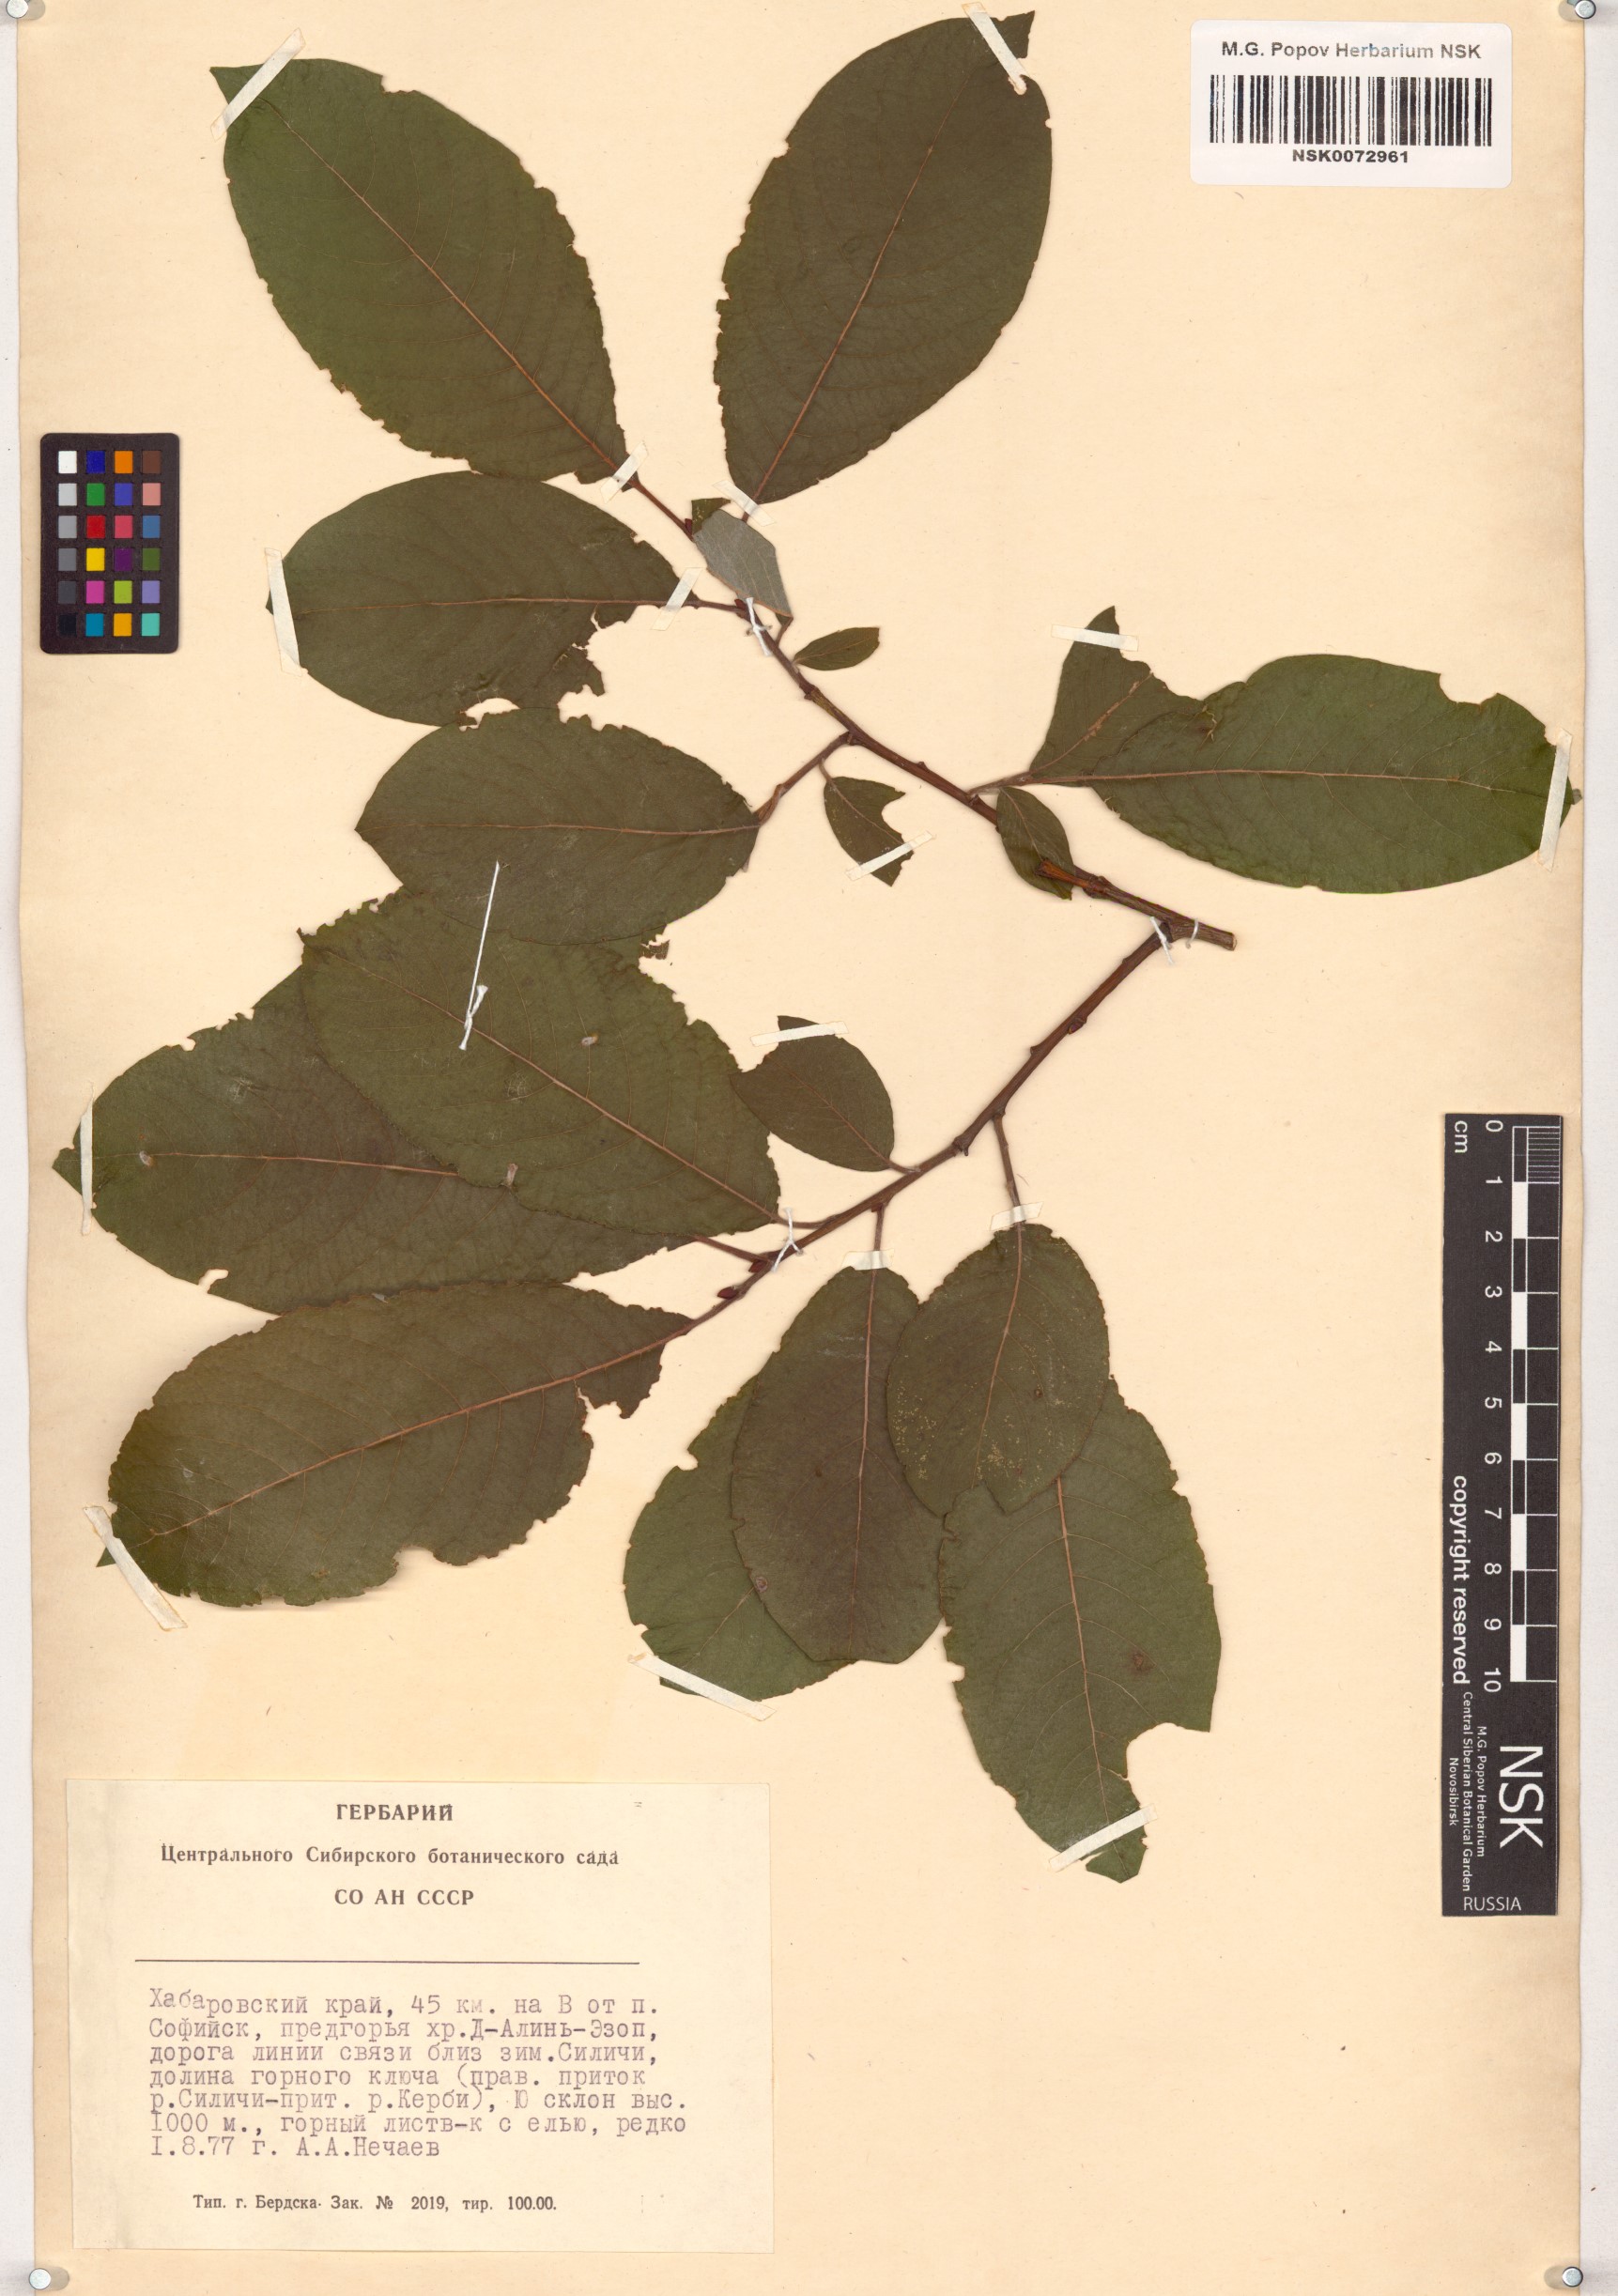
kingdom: Plantae
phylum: Tracheophyta
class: Magnoliopsida
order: Malpighiales
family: Salicaceae
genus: Salix
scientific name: Salix caprea
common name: Goat willow
